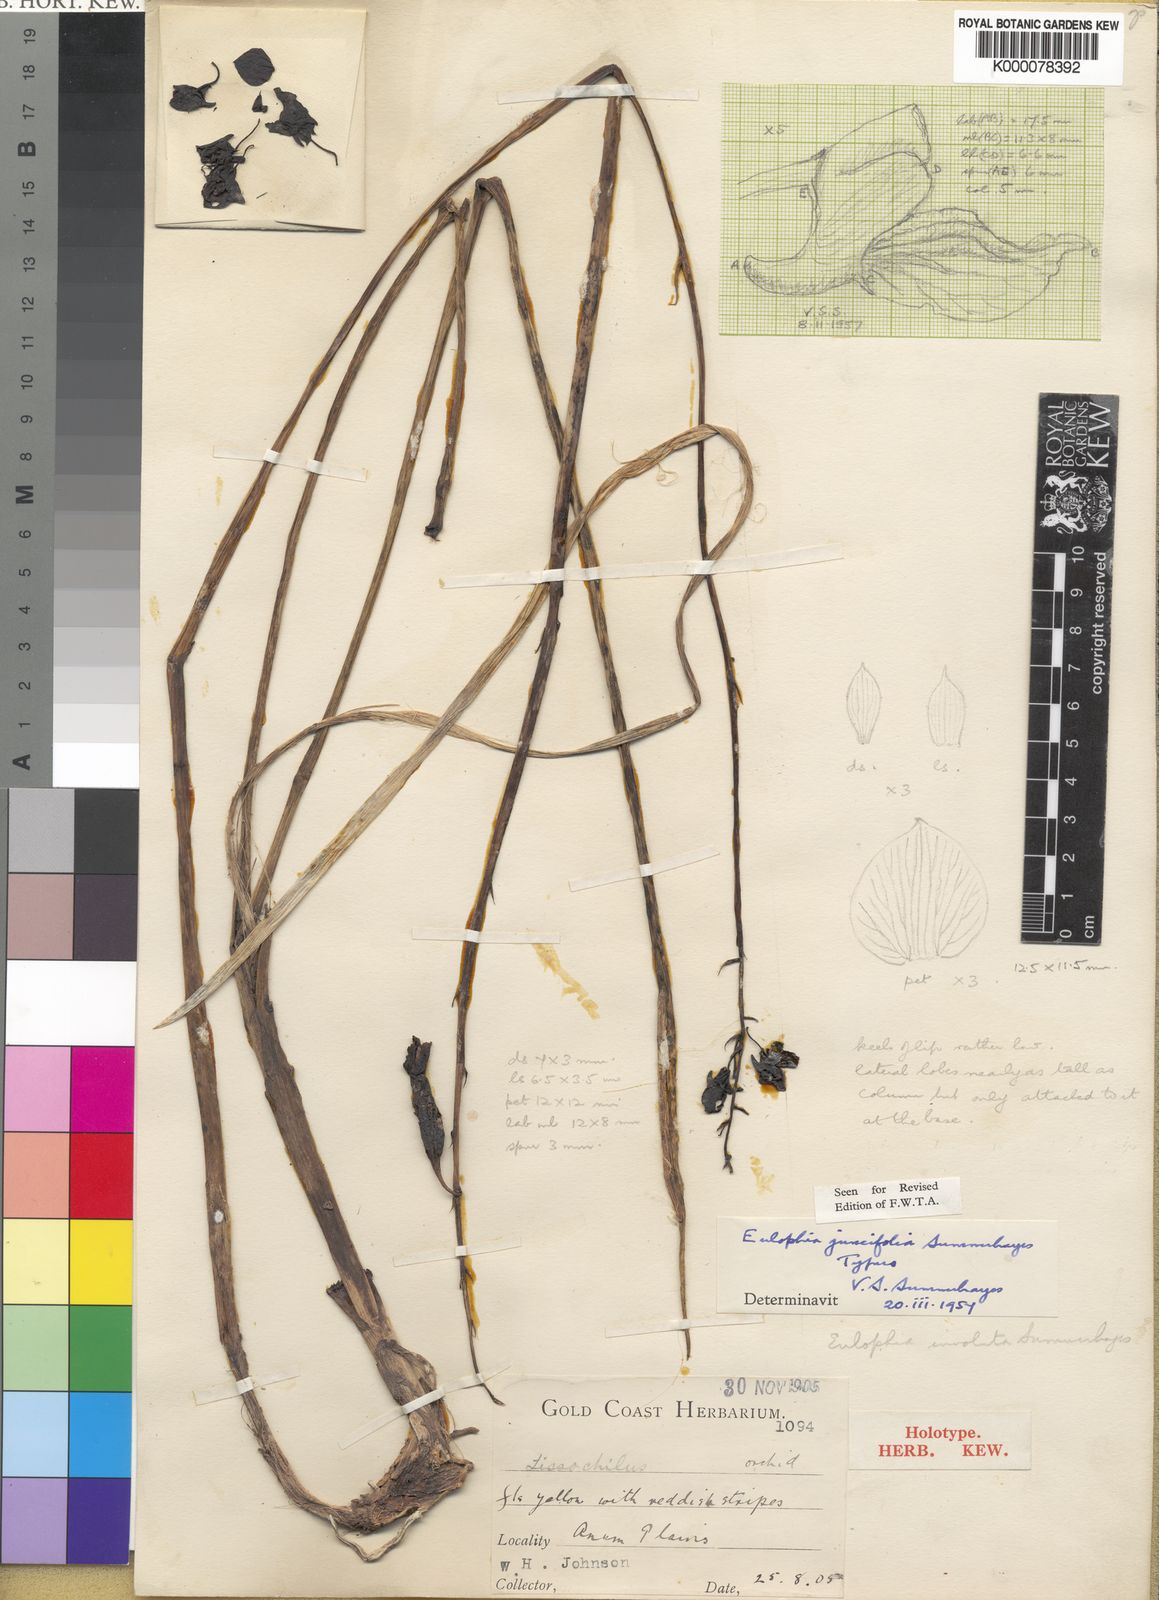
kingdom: Plantae
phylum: Tracheophyta
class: Liliopsida
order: Asparagales
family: Orchidaceae
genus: Eulophia
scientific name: Eulophia juncifolia
